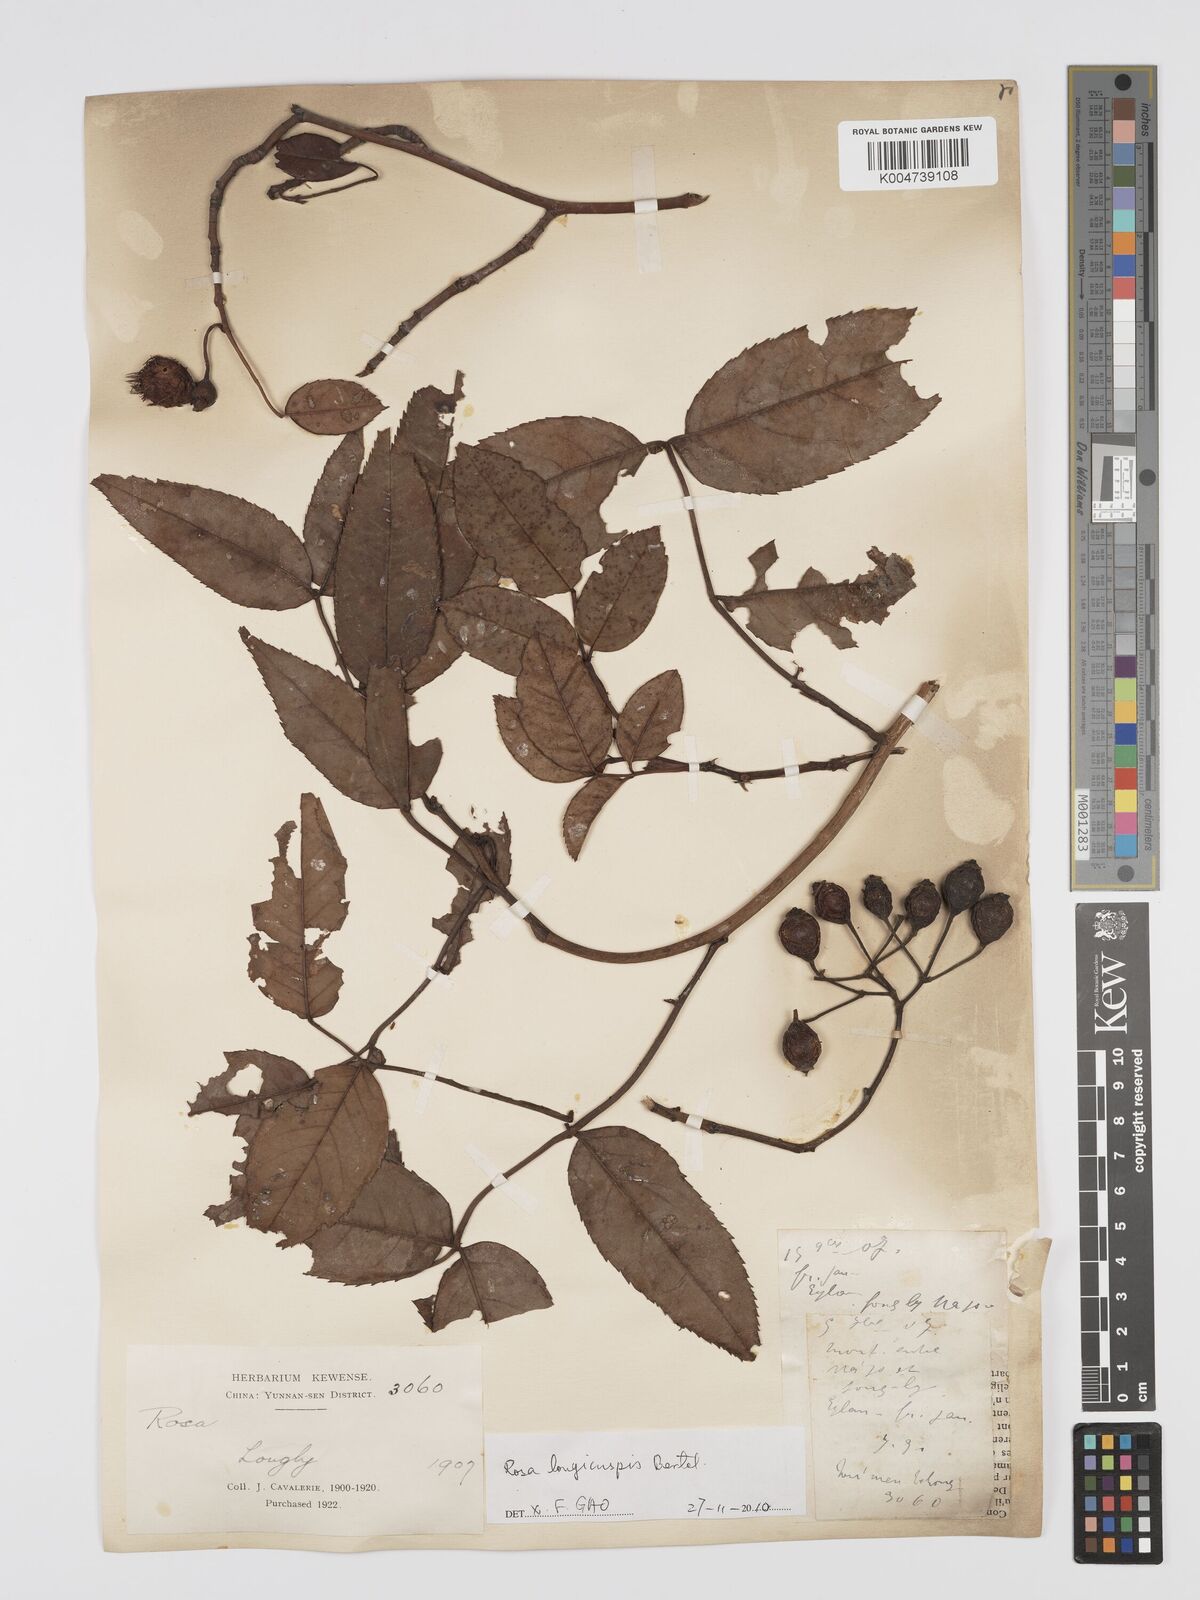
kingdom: Plantae
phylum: Tracheophyta
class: Magnoliopsida
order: Rosales
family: Rosaceae
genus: Rosa
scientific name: Rosa longicuspis
